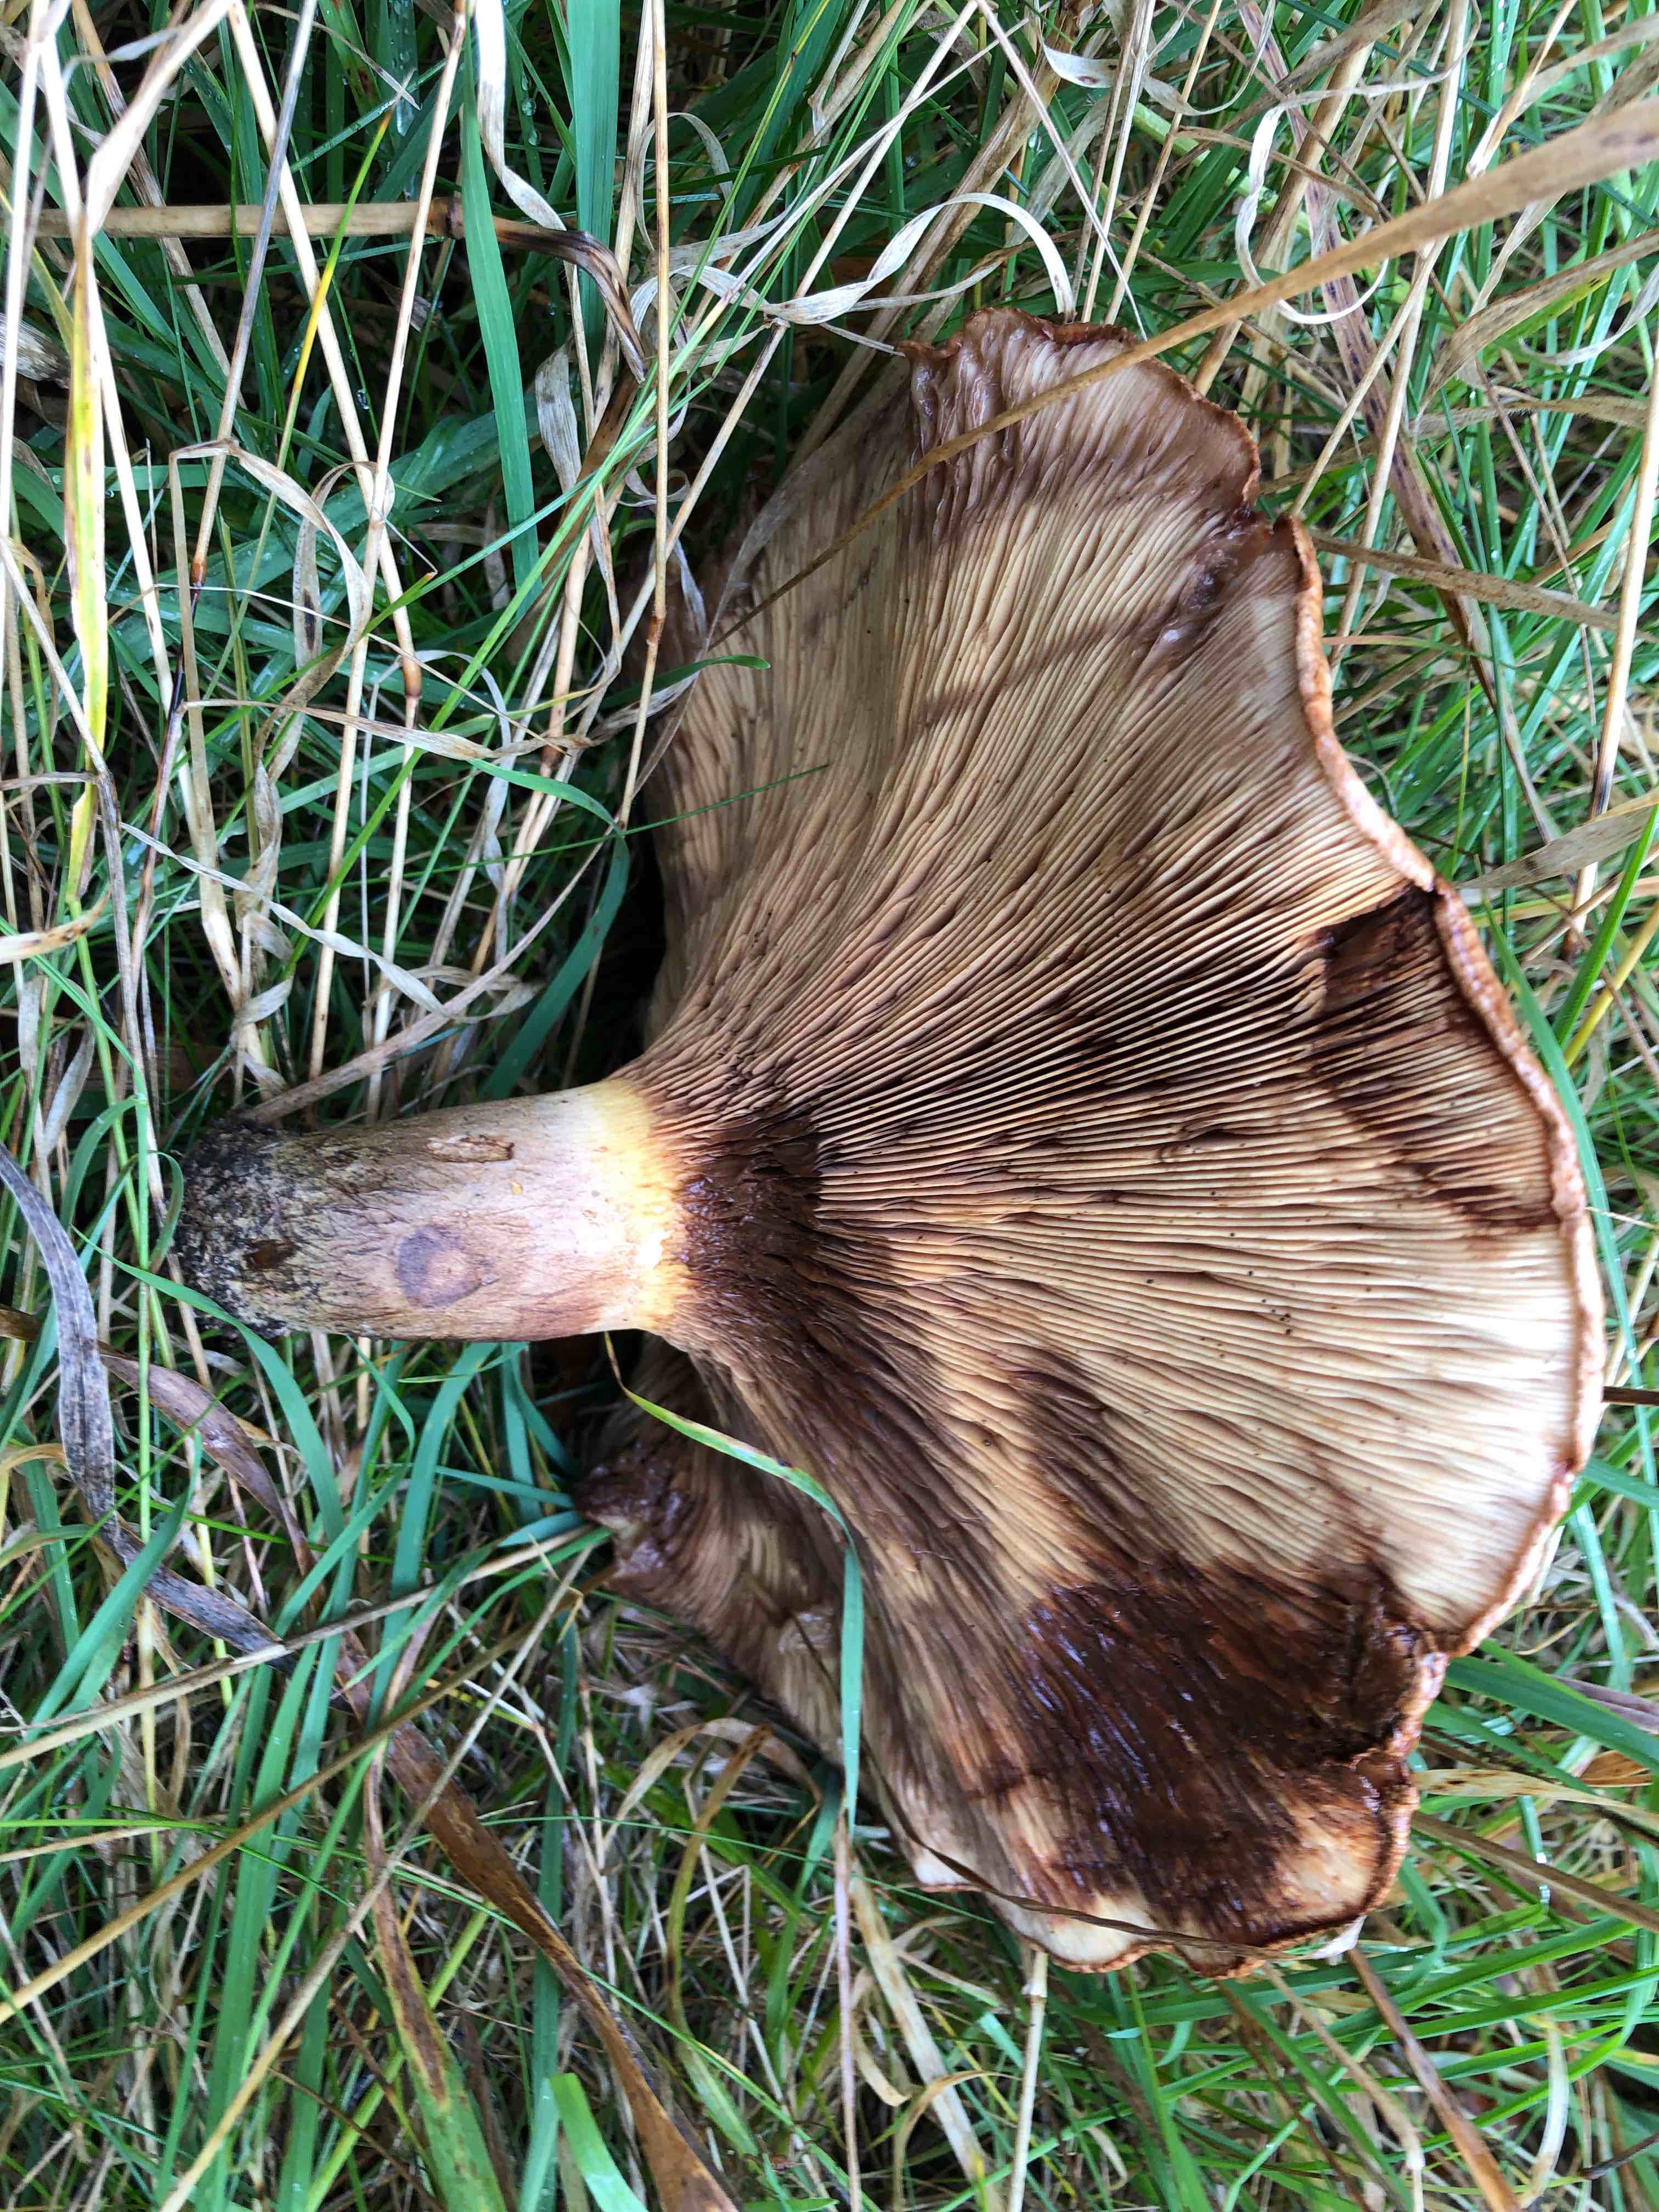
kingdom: Fungi
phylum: Basidiomycota
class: Agaricomycetes
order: Boletales
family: Paxillaceae
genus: Paxillus
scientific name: Paxillus involutus
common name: almindelig netbladhat
